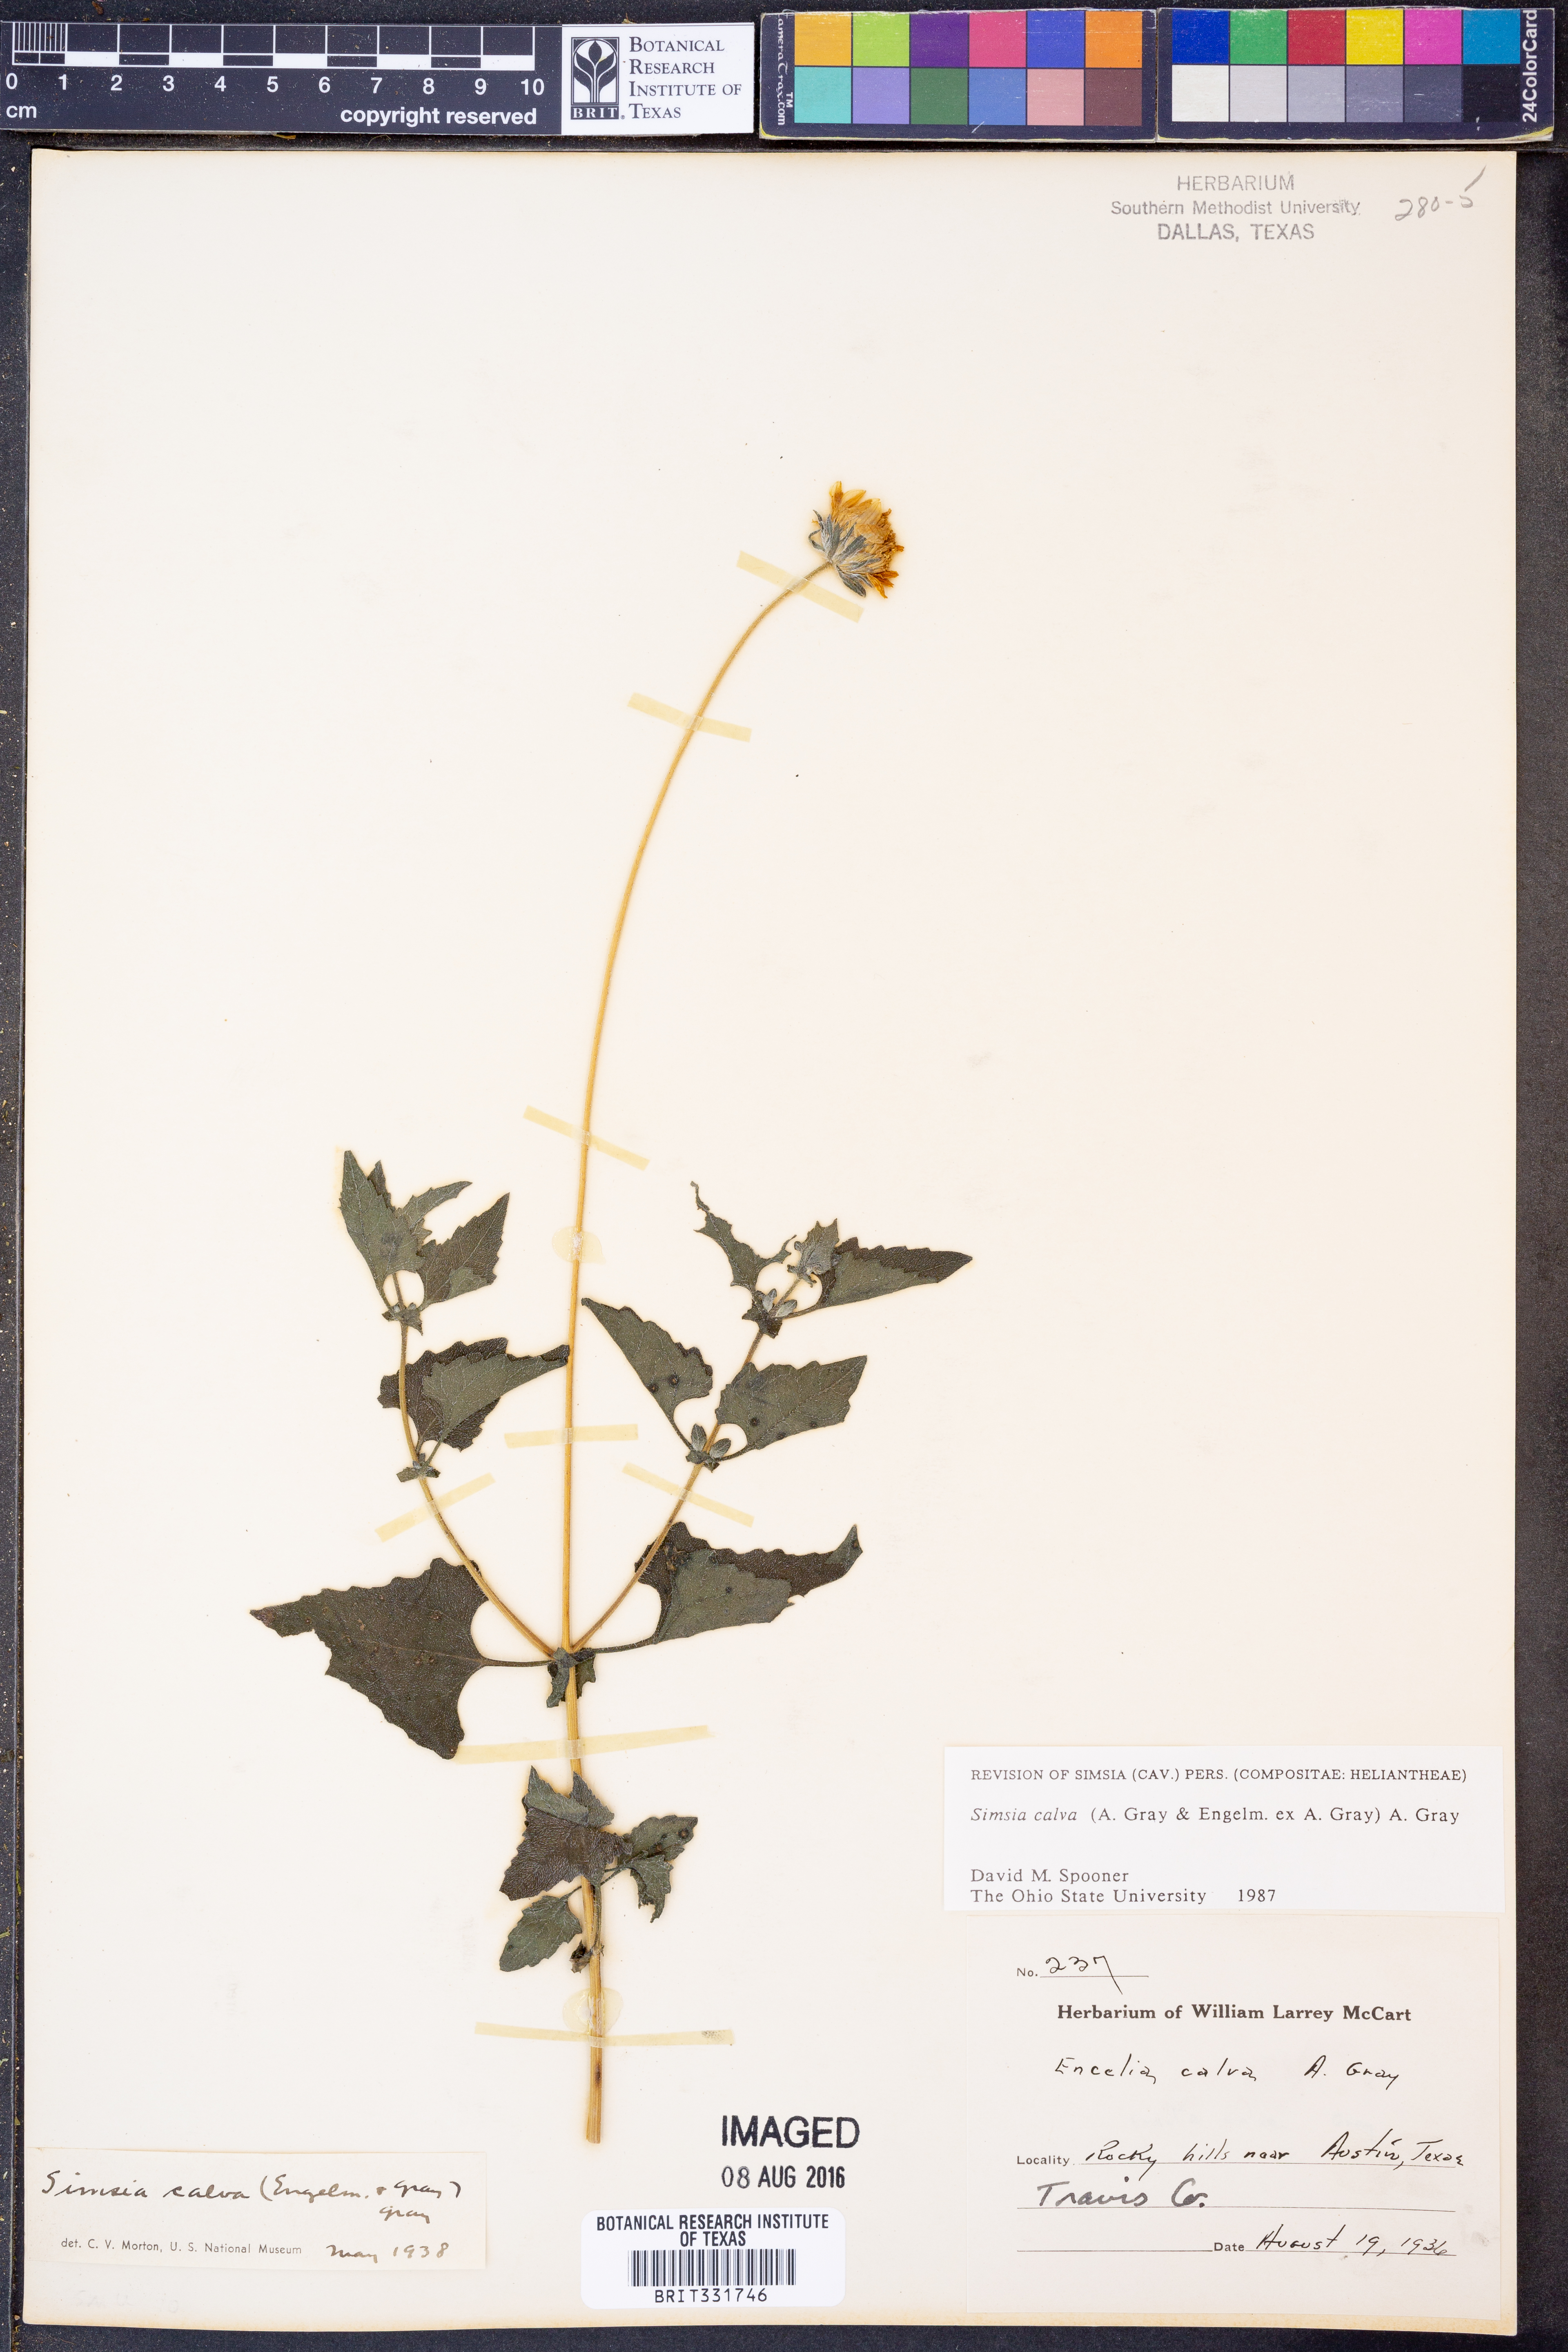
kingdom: Plantae
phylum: Tracheophyta
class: Magnoliopsida
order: Asterales
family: Asteraceae
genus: Simsia
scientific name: Simsia calva
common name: Awnless bush-sunflower
